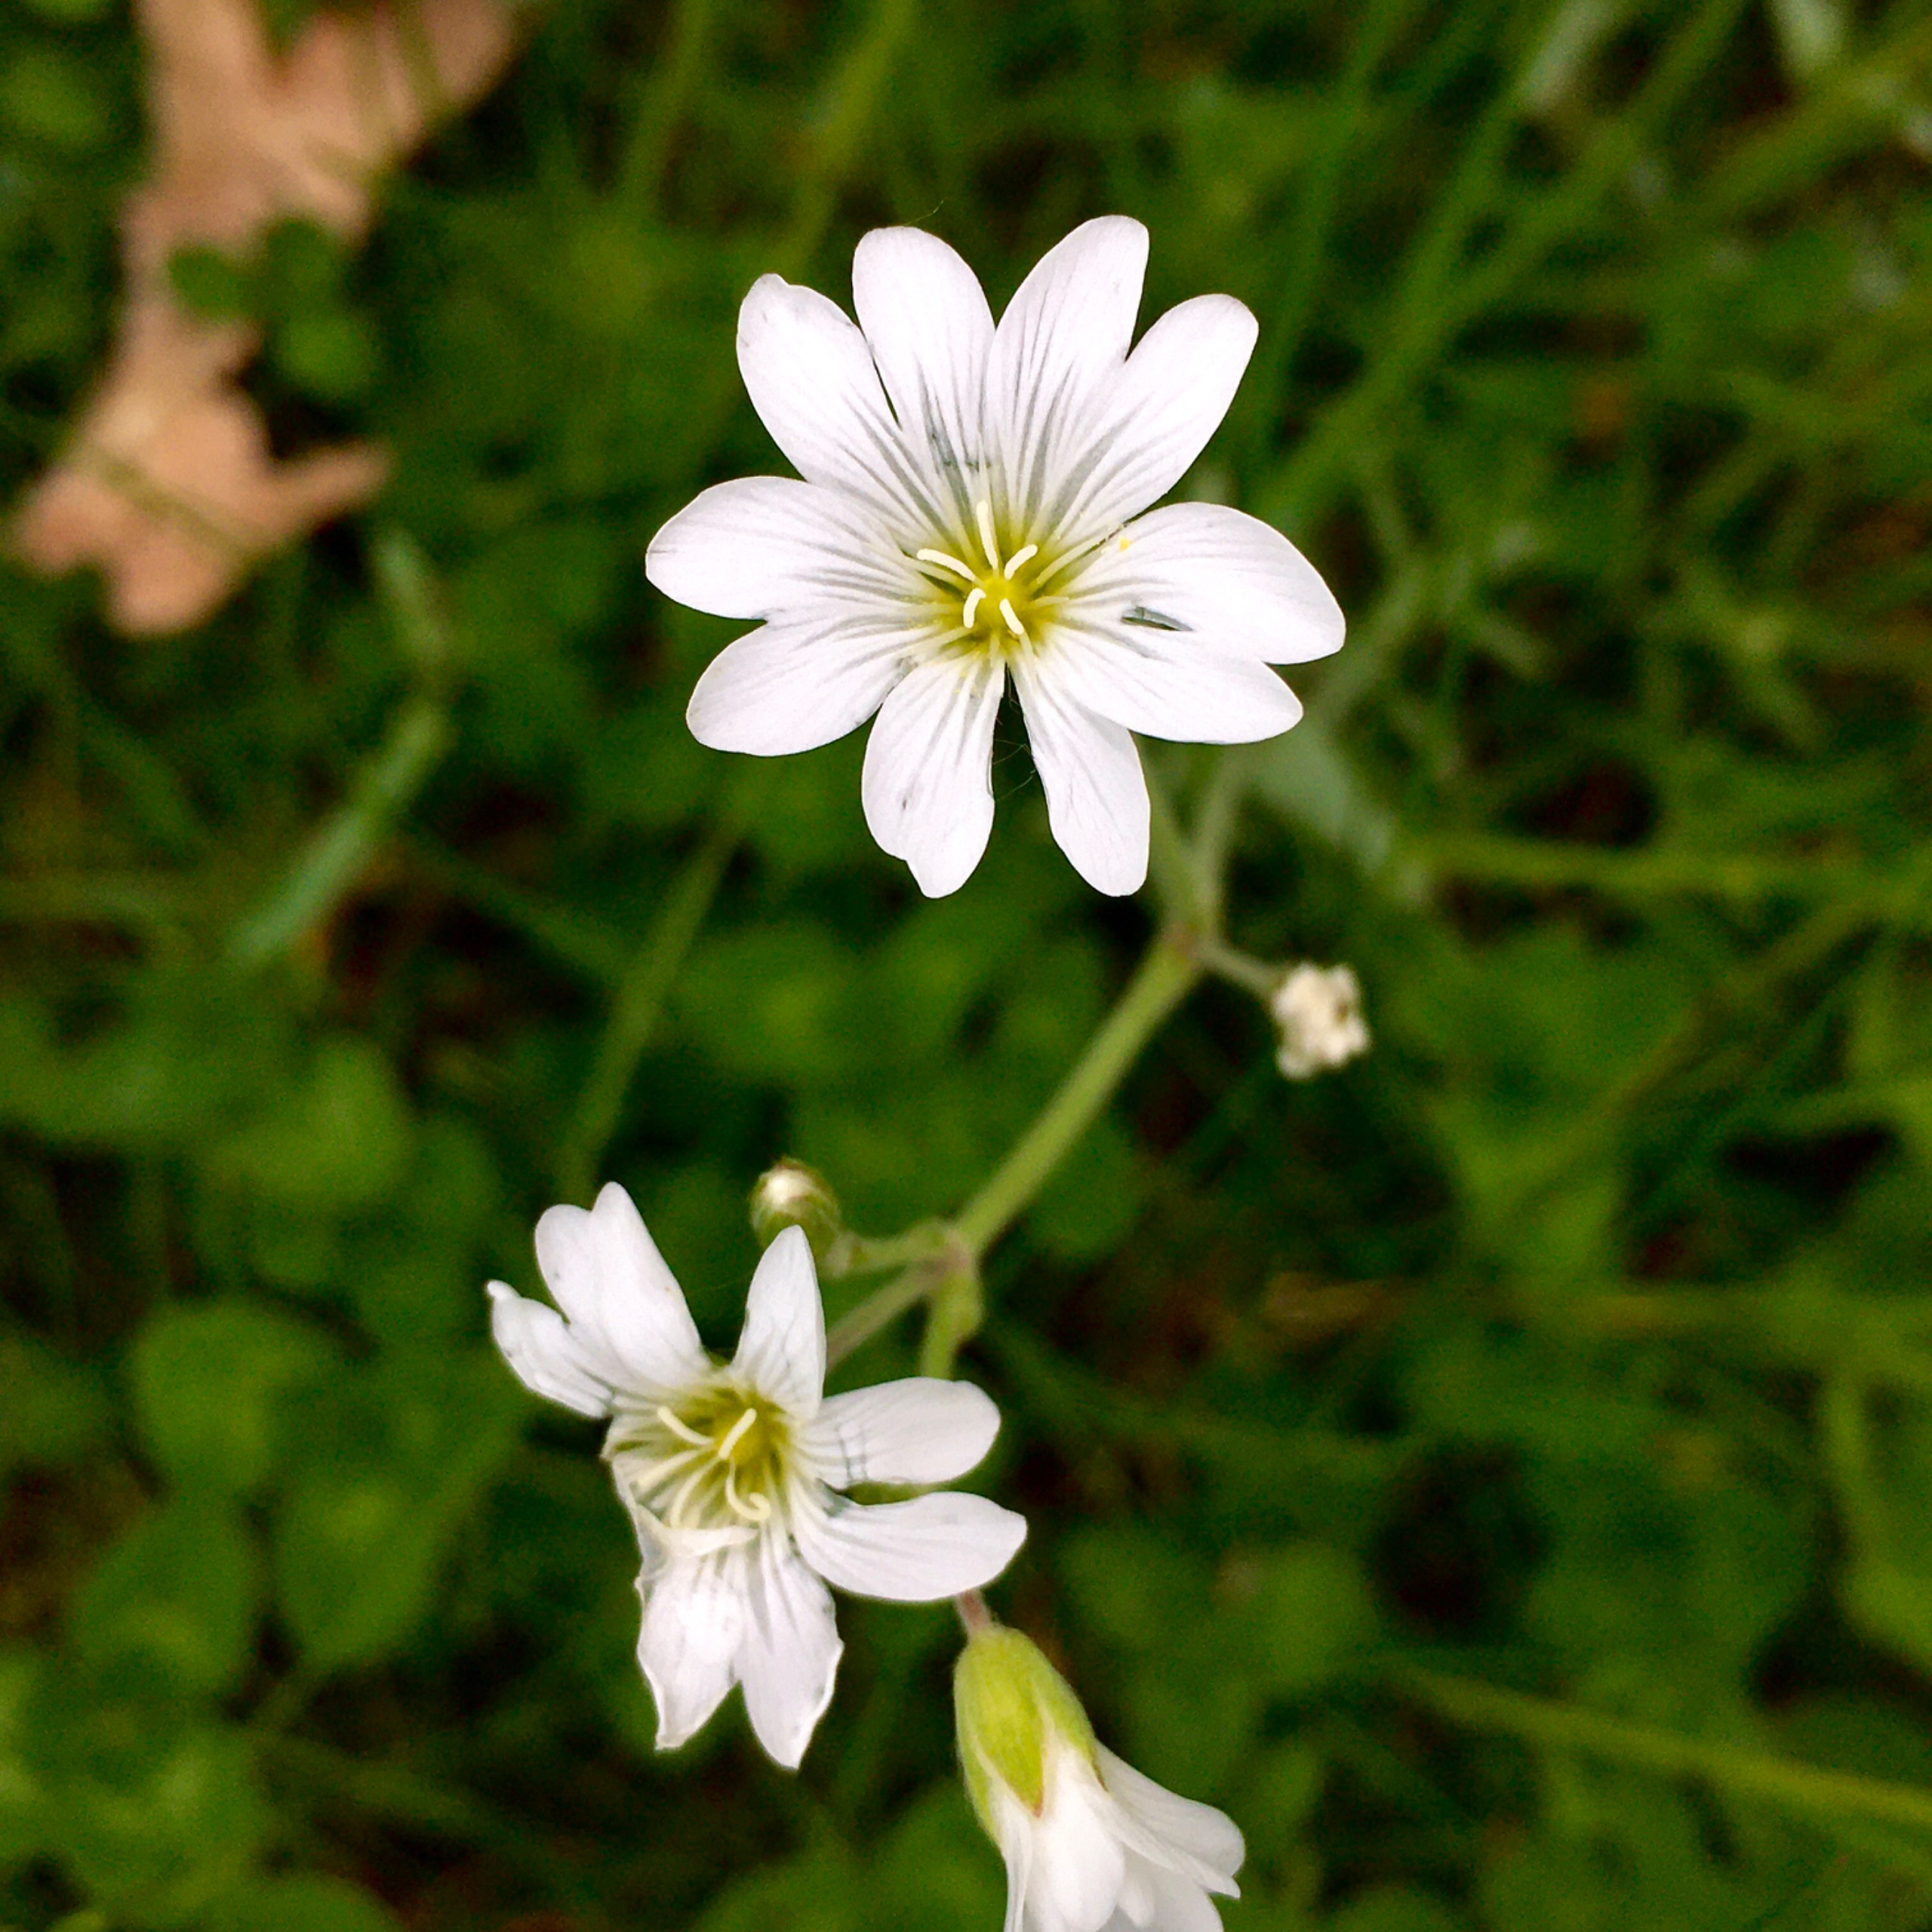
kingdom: Plantae
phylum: Tracheophyta
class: Magnoliopsida
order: Caryophyllales
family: Caryophyllaceae
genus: Cerastium
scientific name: Cerastium arvense
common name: Storblomstret hønsetarm
